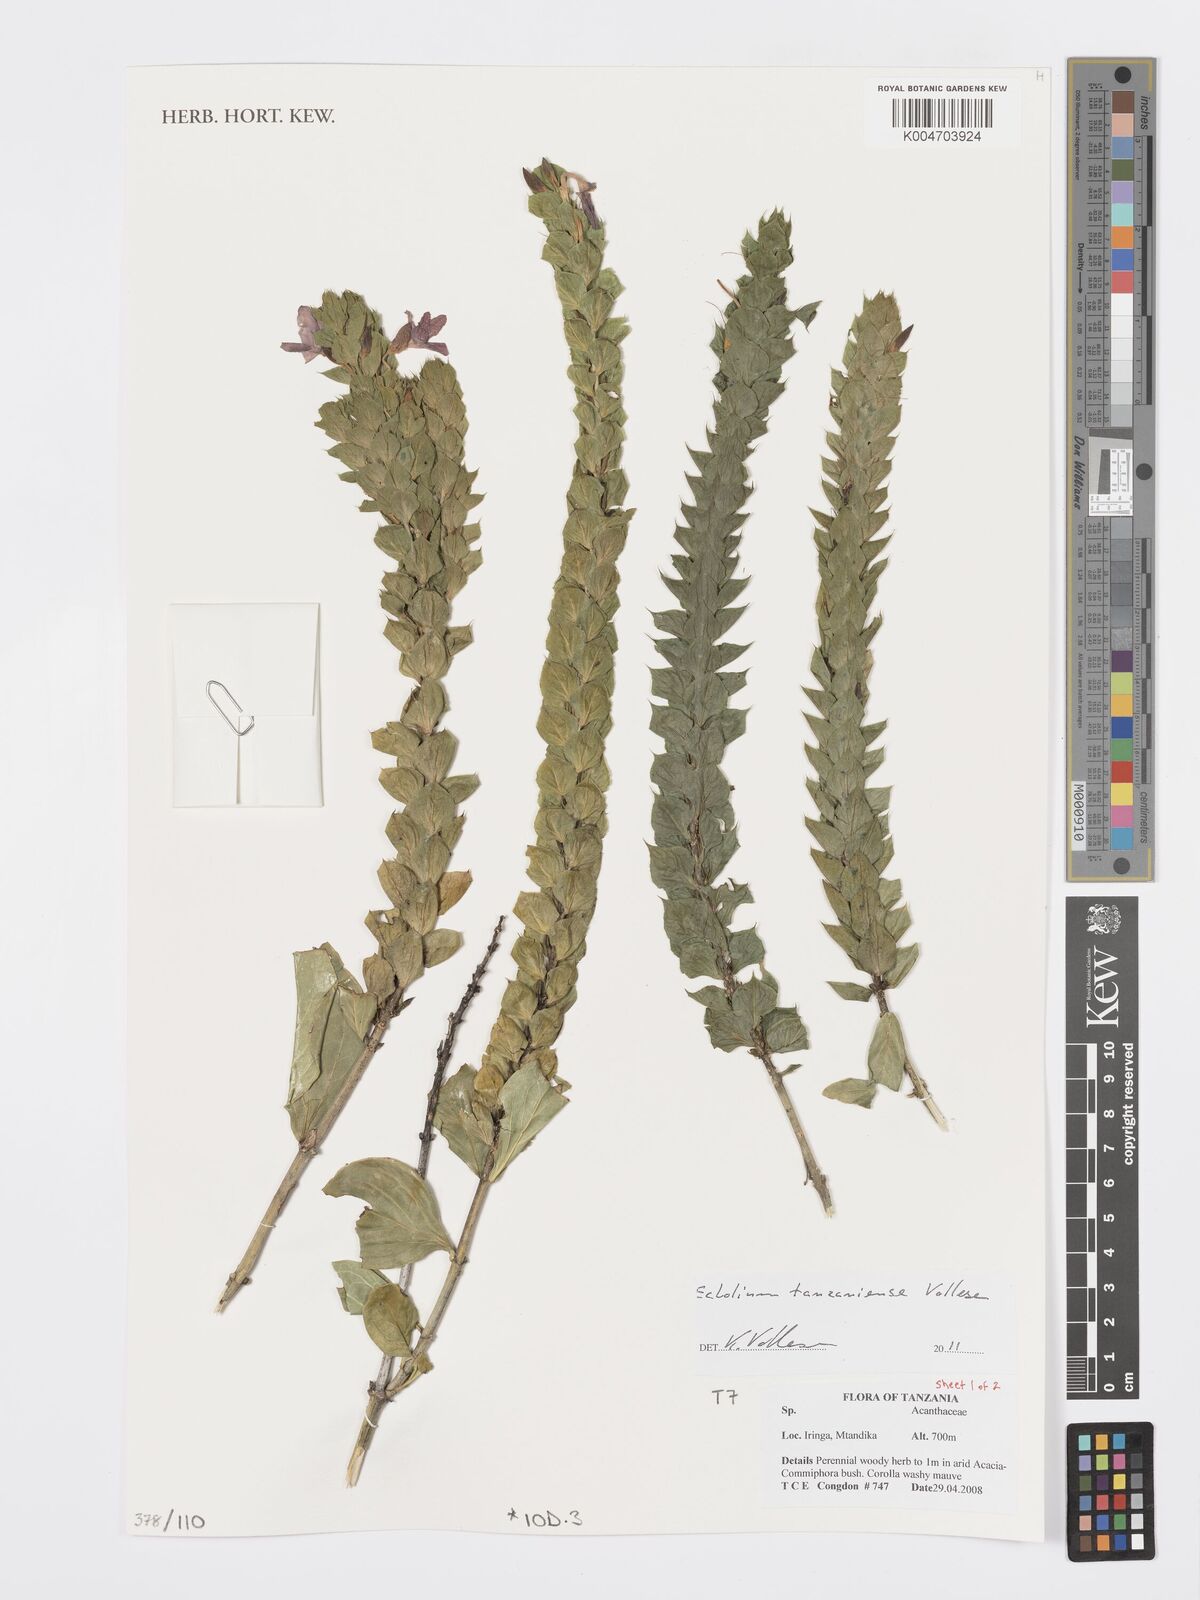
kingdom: Plantae
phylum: Tracheophyta
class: Magnoliopsida
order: Lamiales
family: Acanthaceae
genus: Ecbolium
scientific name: Ecbolium tanzaniense
